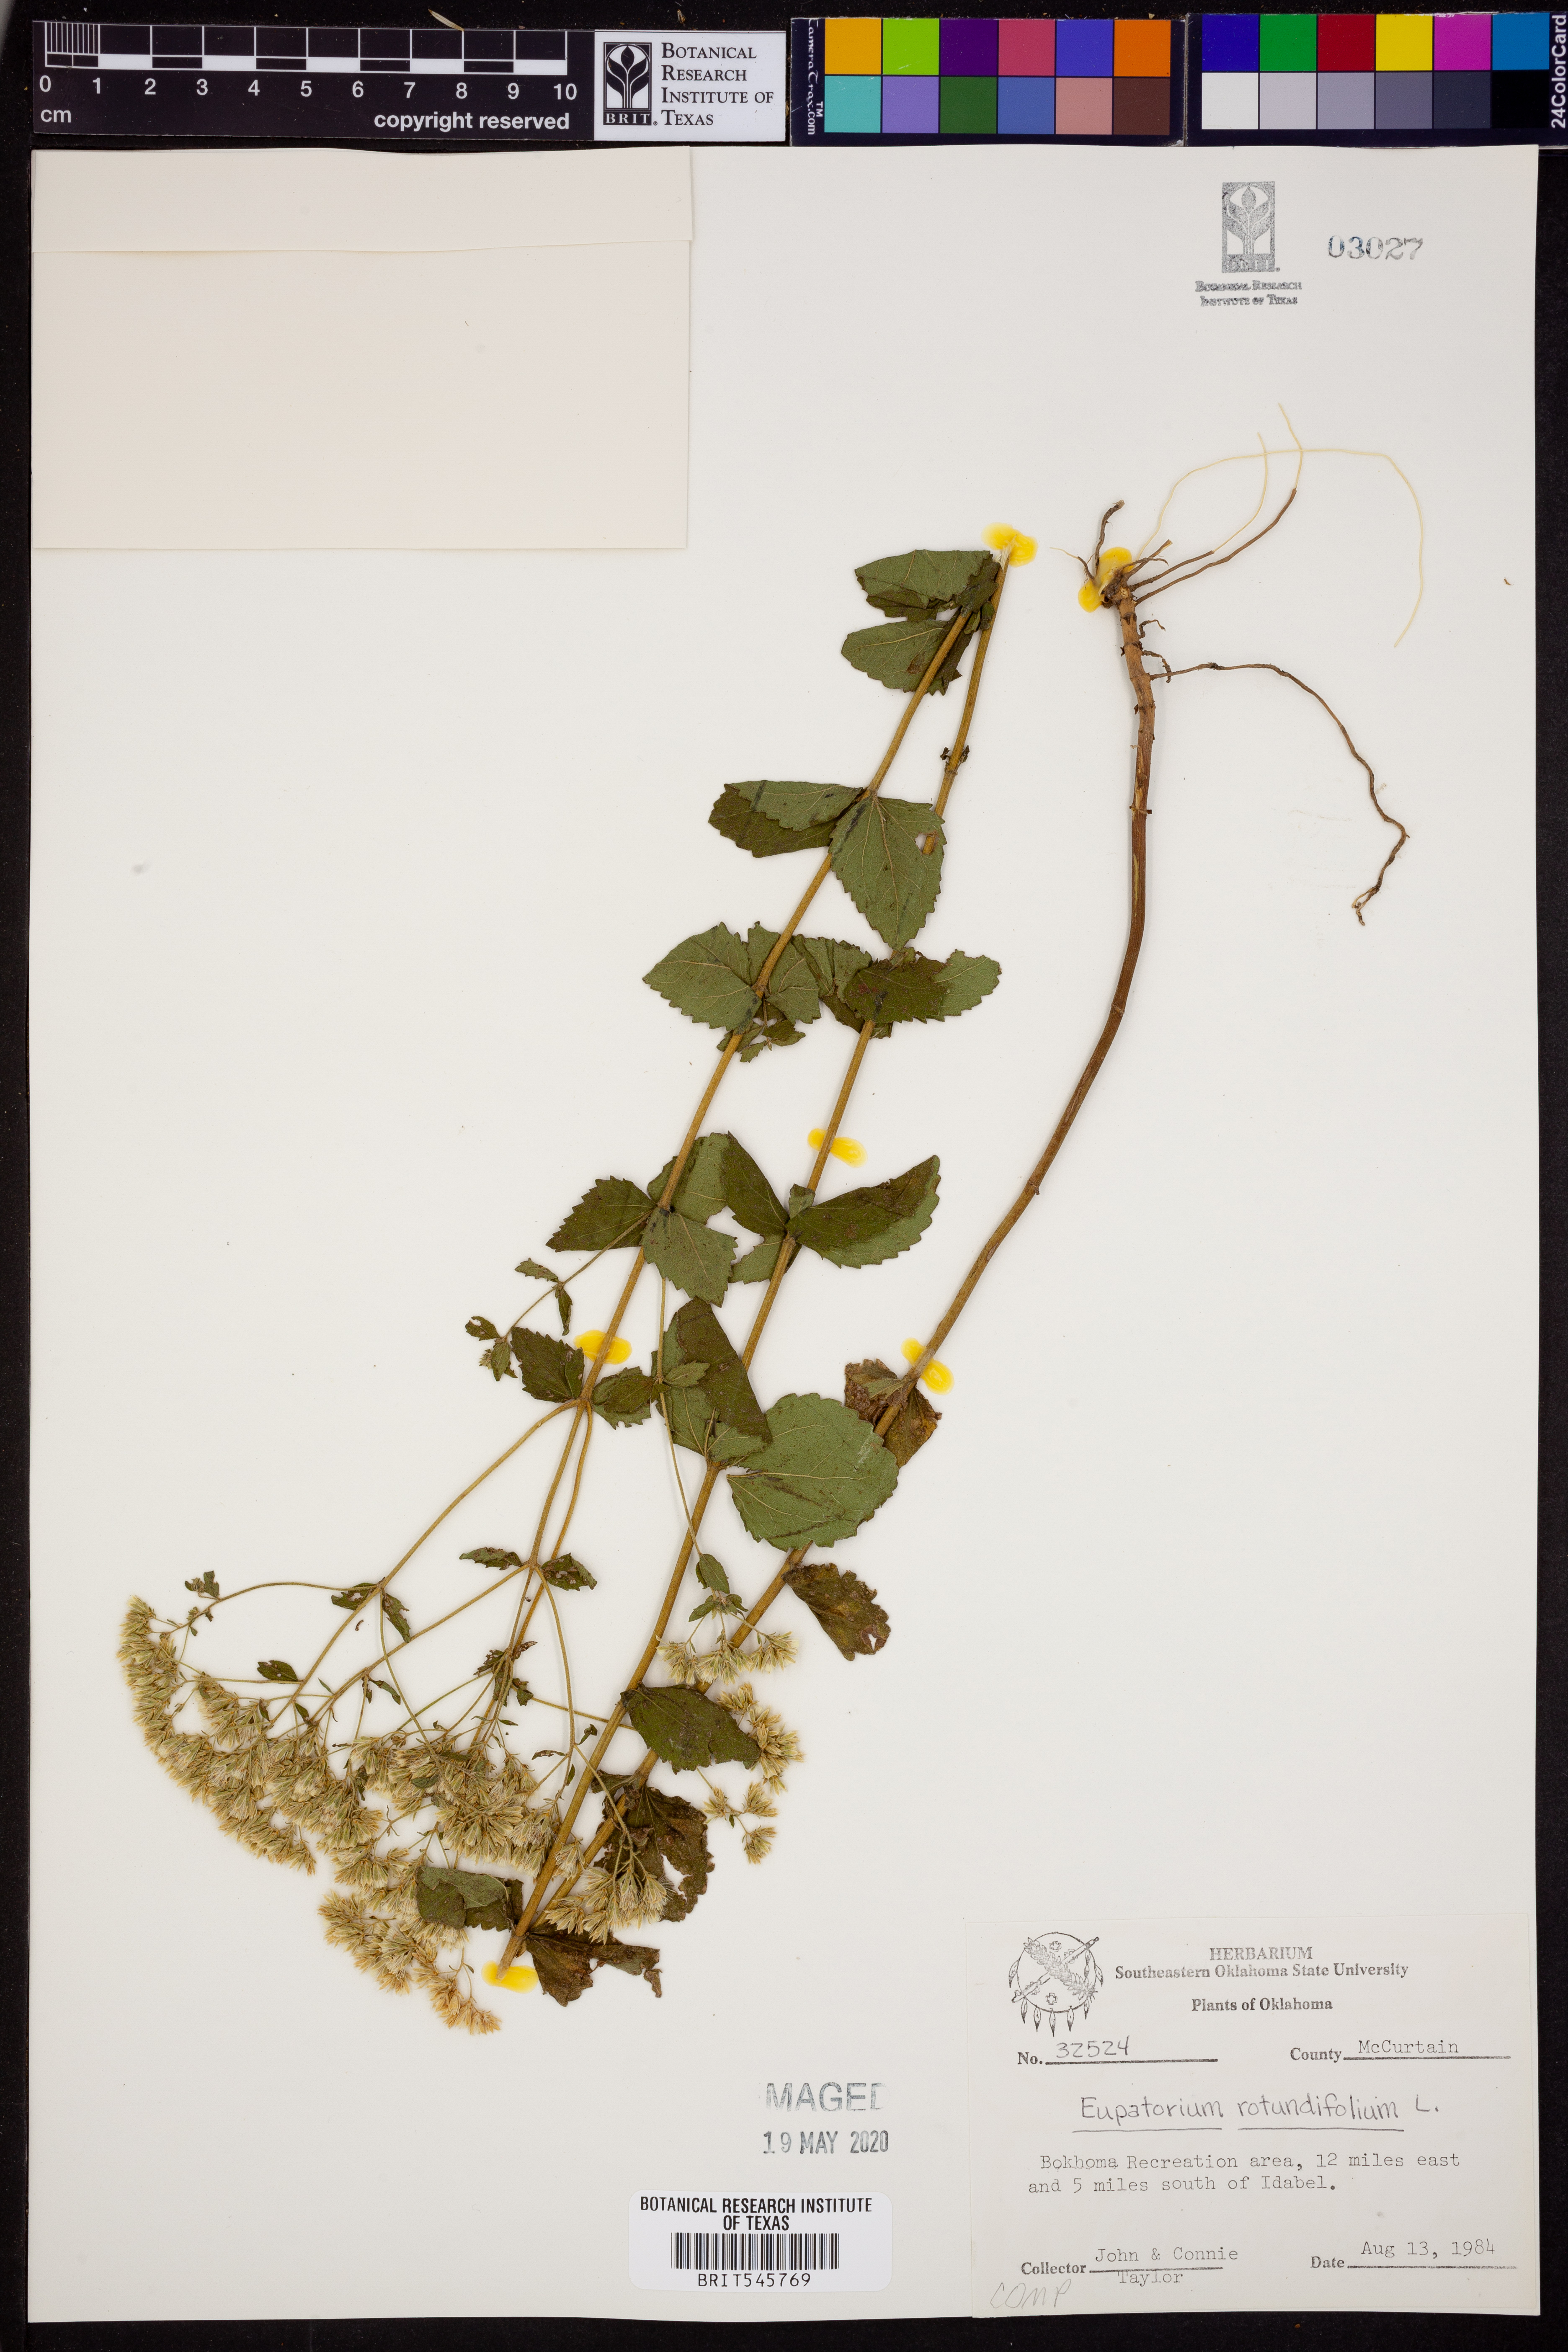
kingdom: Plantae
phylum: Tracheophyta
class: Magnoliopsida
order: Asterales
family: Asteraceae
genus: Eupatorium
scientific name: Eupatorium rotundifolium
